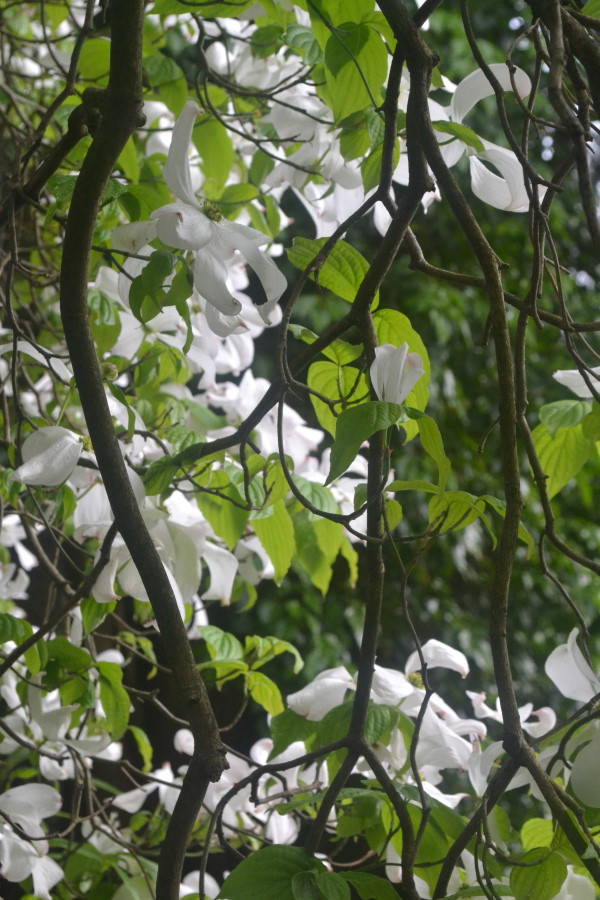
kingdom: Plantae
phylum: Tracheophyta
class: Magnoliopsida
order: Cornales
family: Cornaceae
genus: Cornus
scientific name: Cornus florida
